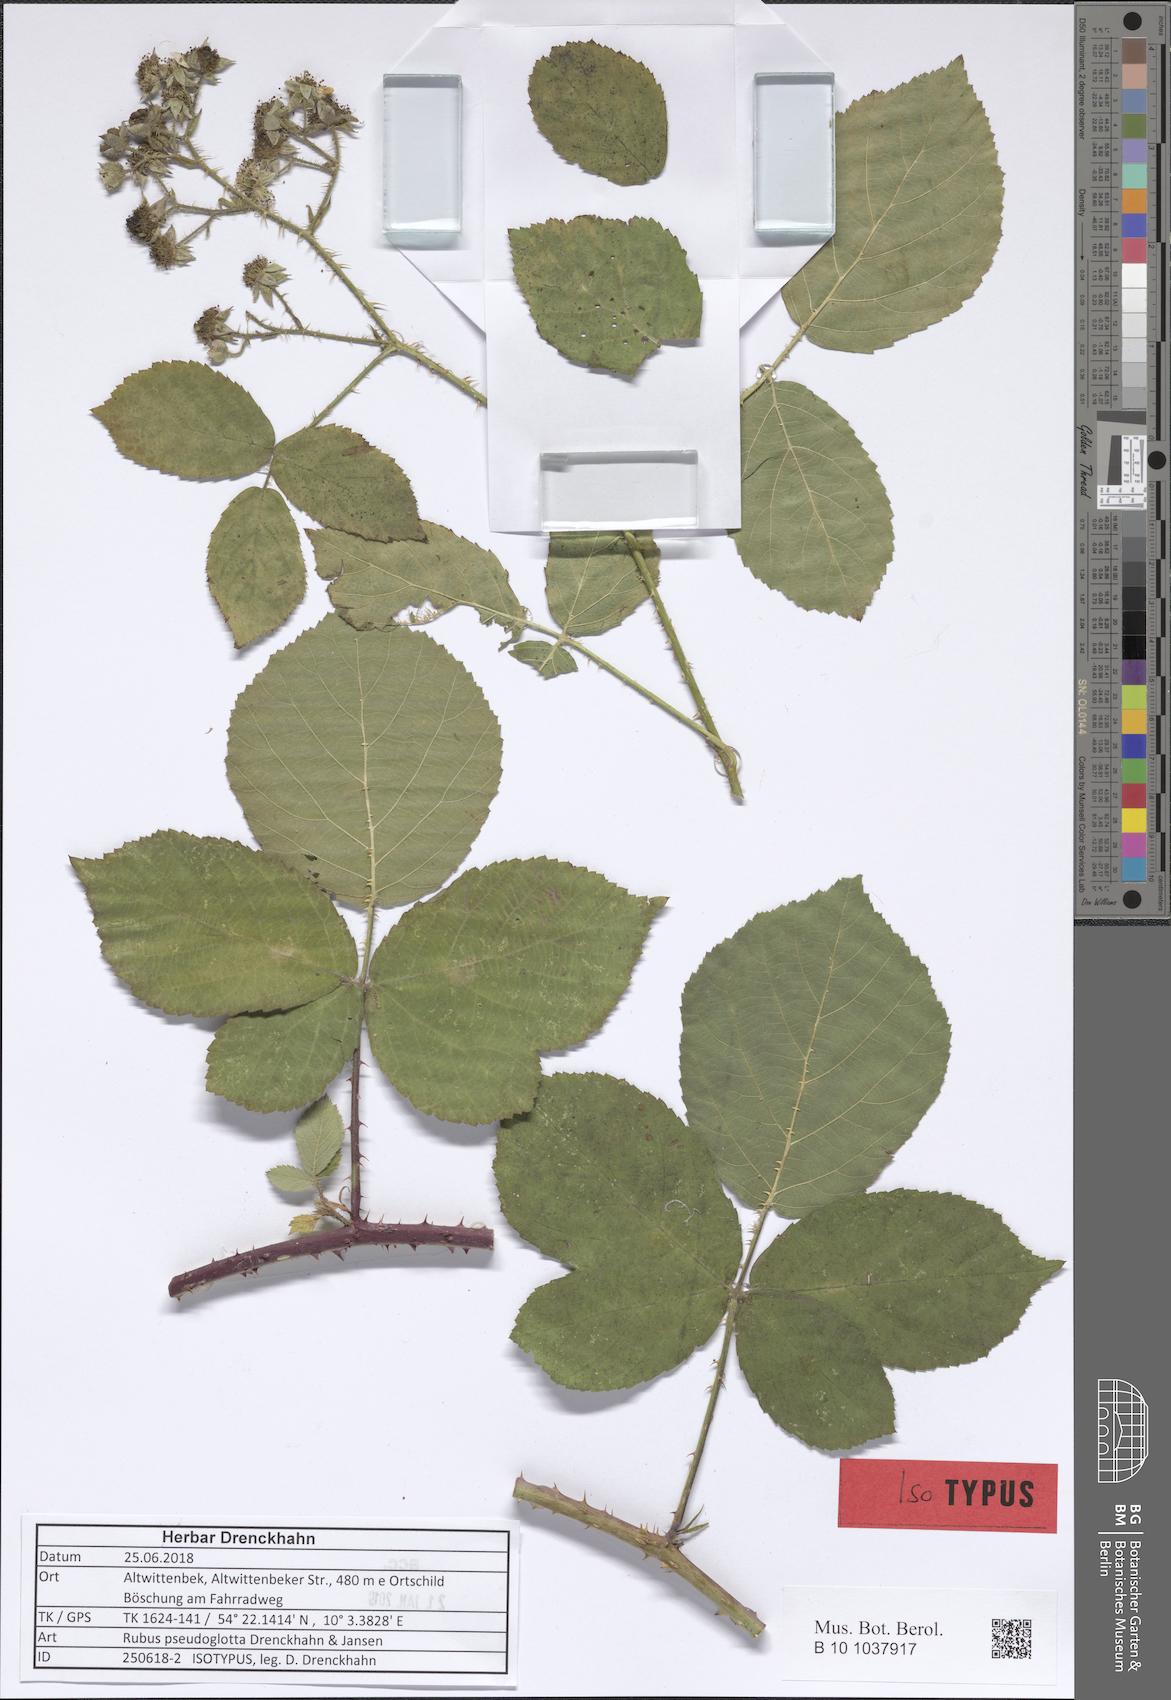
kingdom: Plantae
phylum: Tracheophyta
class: Magnoliopsida
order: Rosales
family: Rosaceae
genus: Rubus
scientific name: Rubus pseudoglotta
